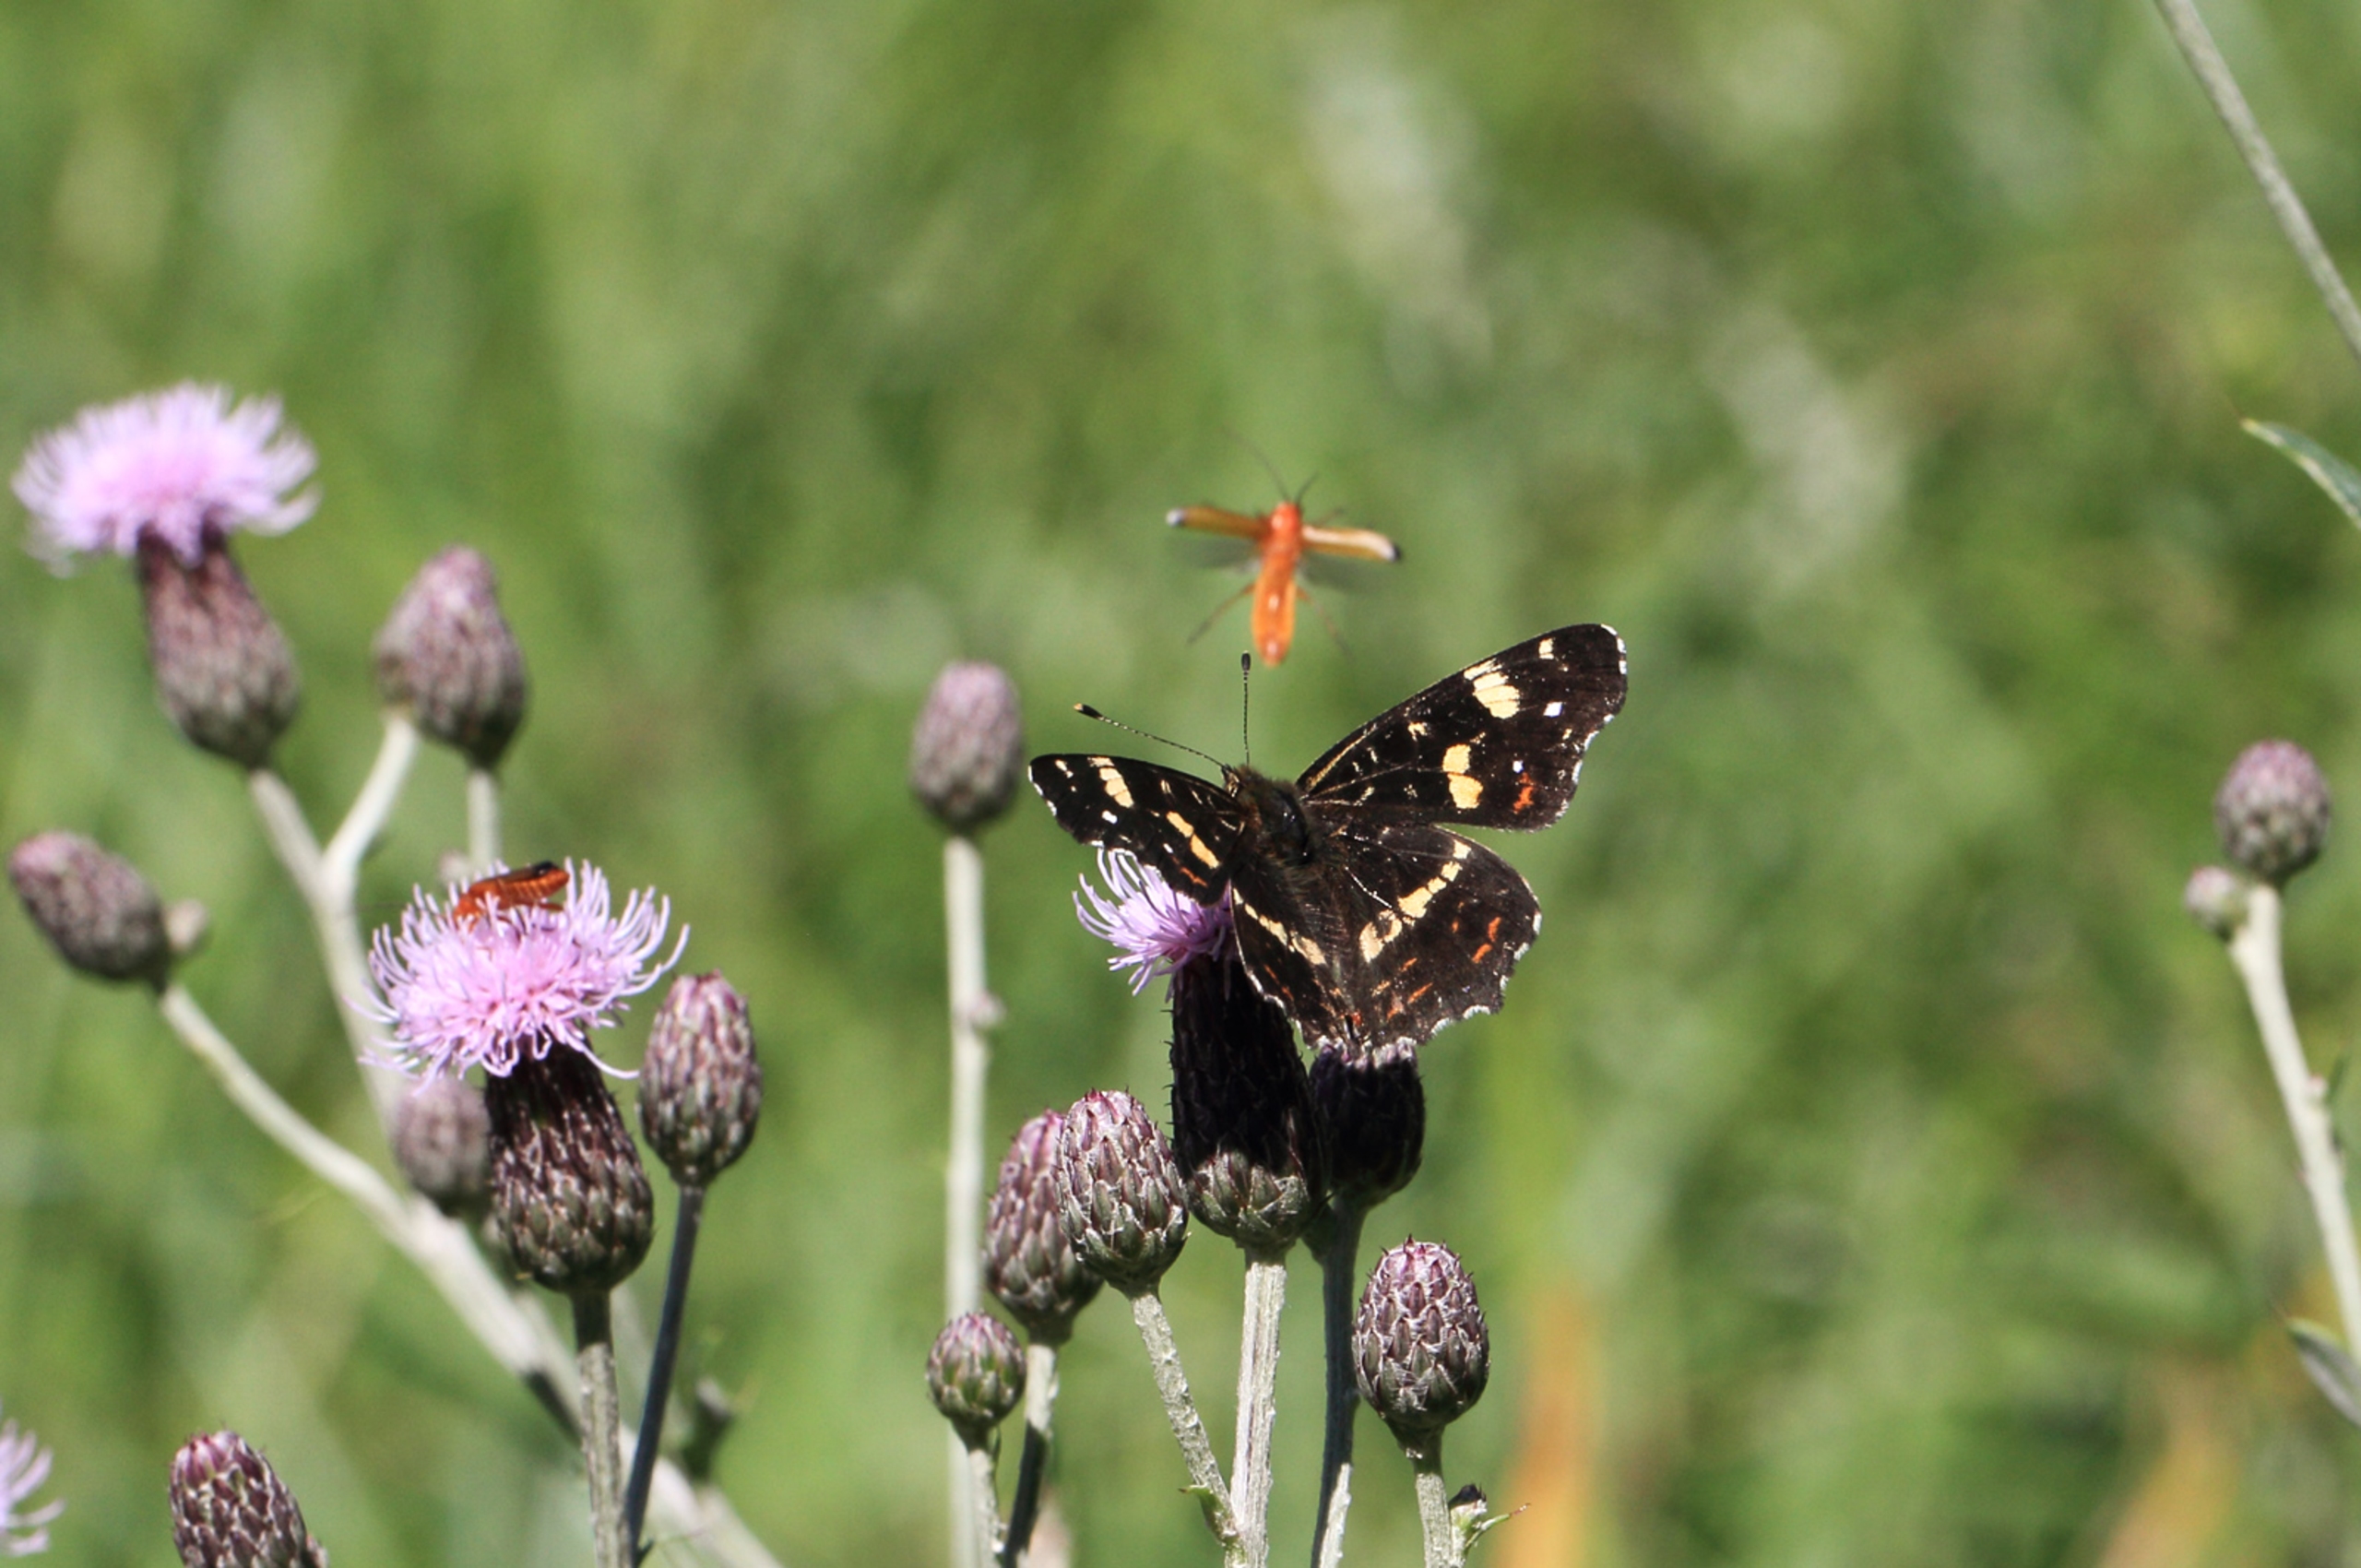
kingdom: Animalia
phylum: Arthropoda
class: Insecta
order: Lepidoptera
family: Nymphalidae
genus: Araschnia
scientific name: Araschnia levana
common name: Nældesommerfugl
